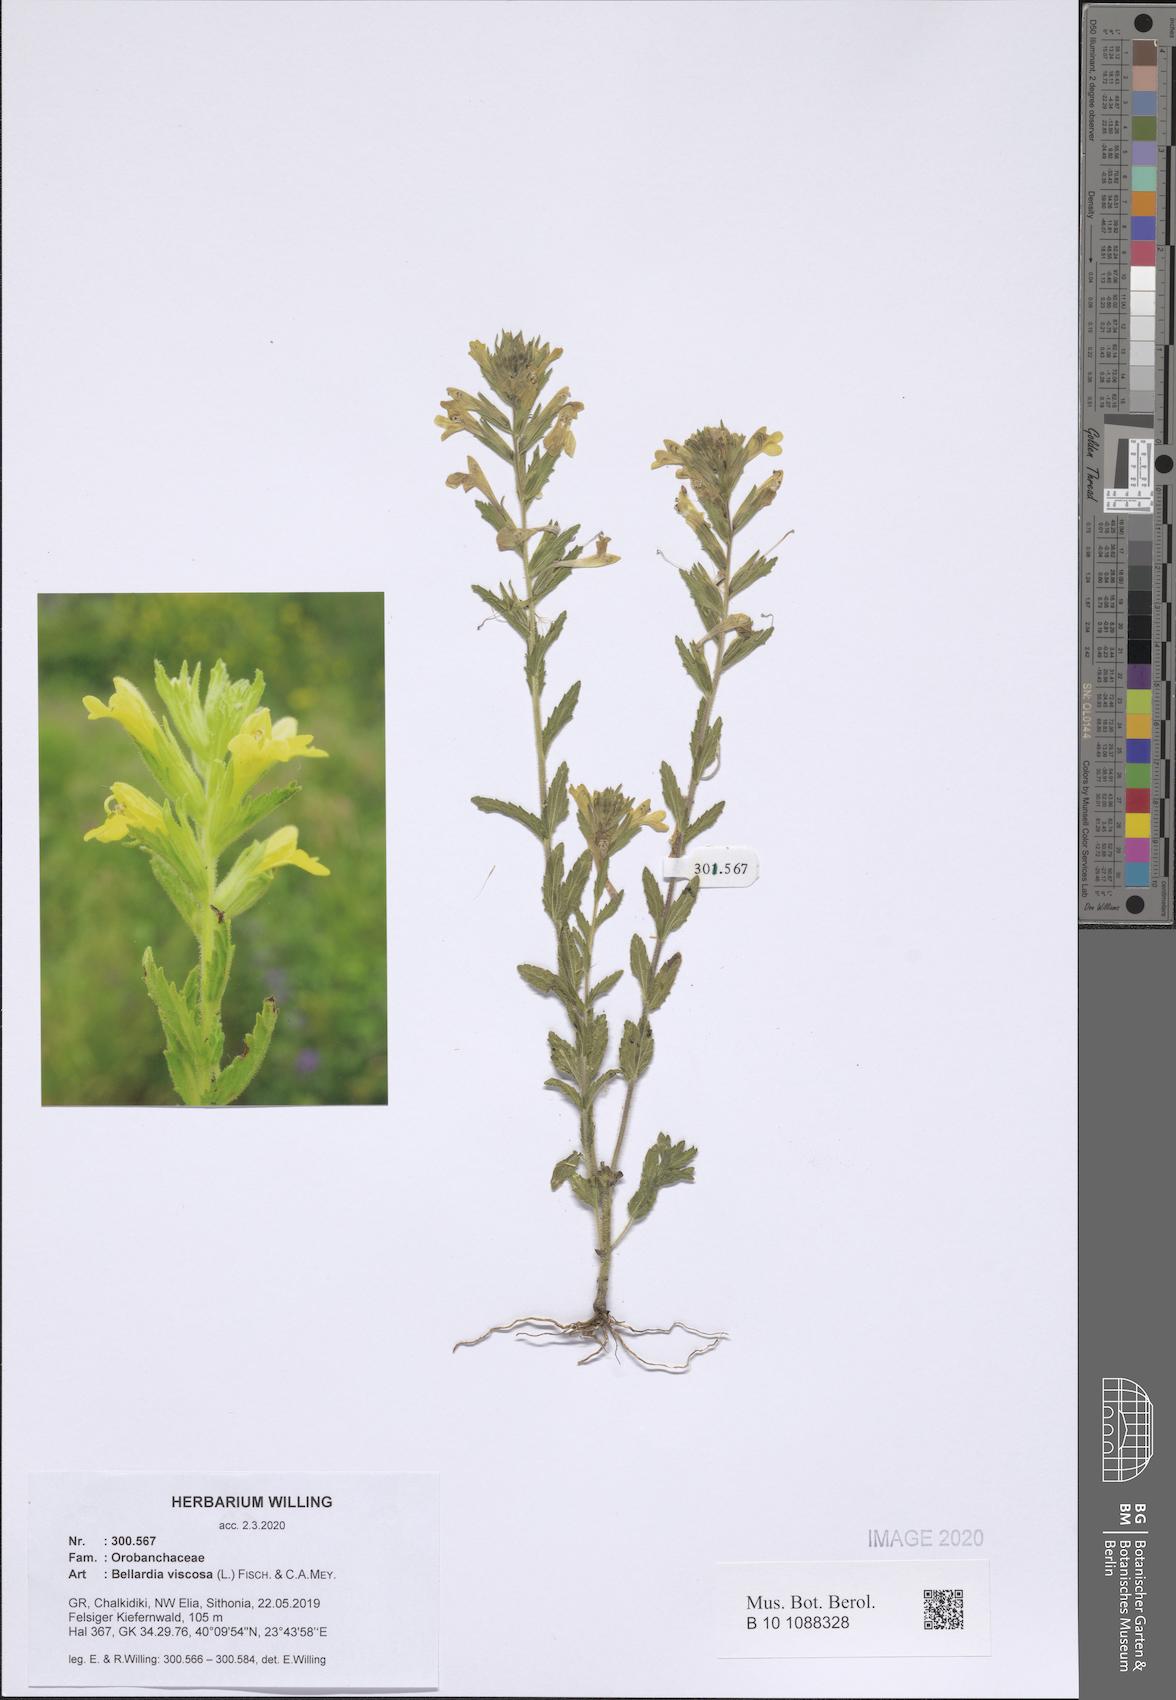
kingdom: Plantae
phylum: Tracheophyta
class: Magnoliopsida
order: Lamiales
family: Orobanchaceae
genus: Bellardia
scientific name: Bellardia viscosa
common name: Sticky parentucellia
